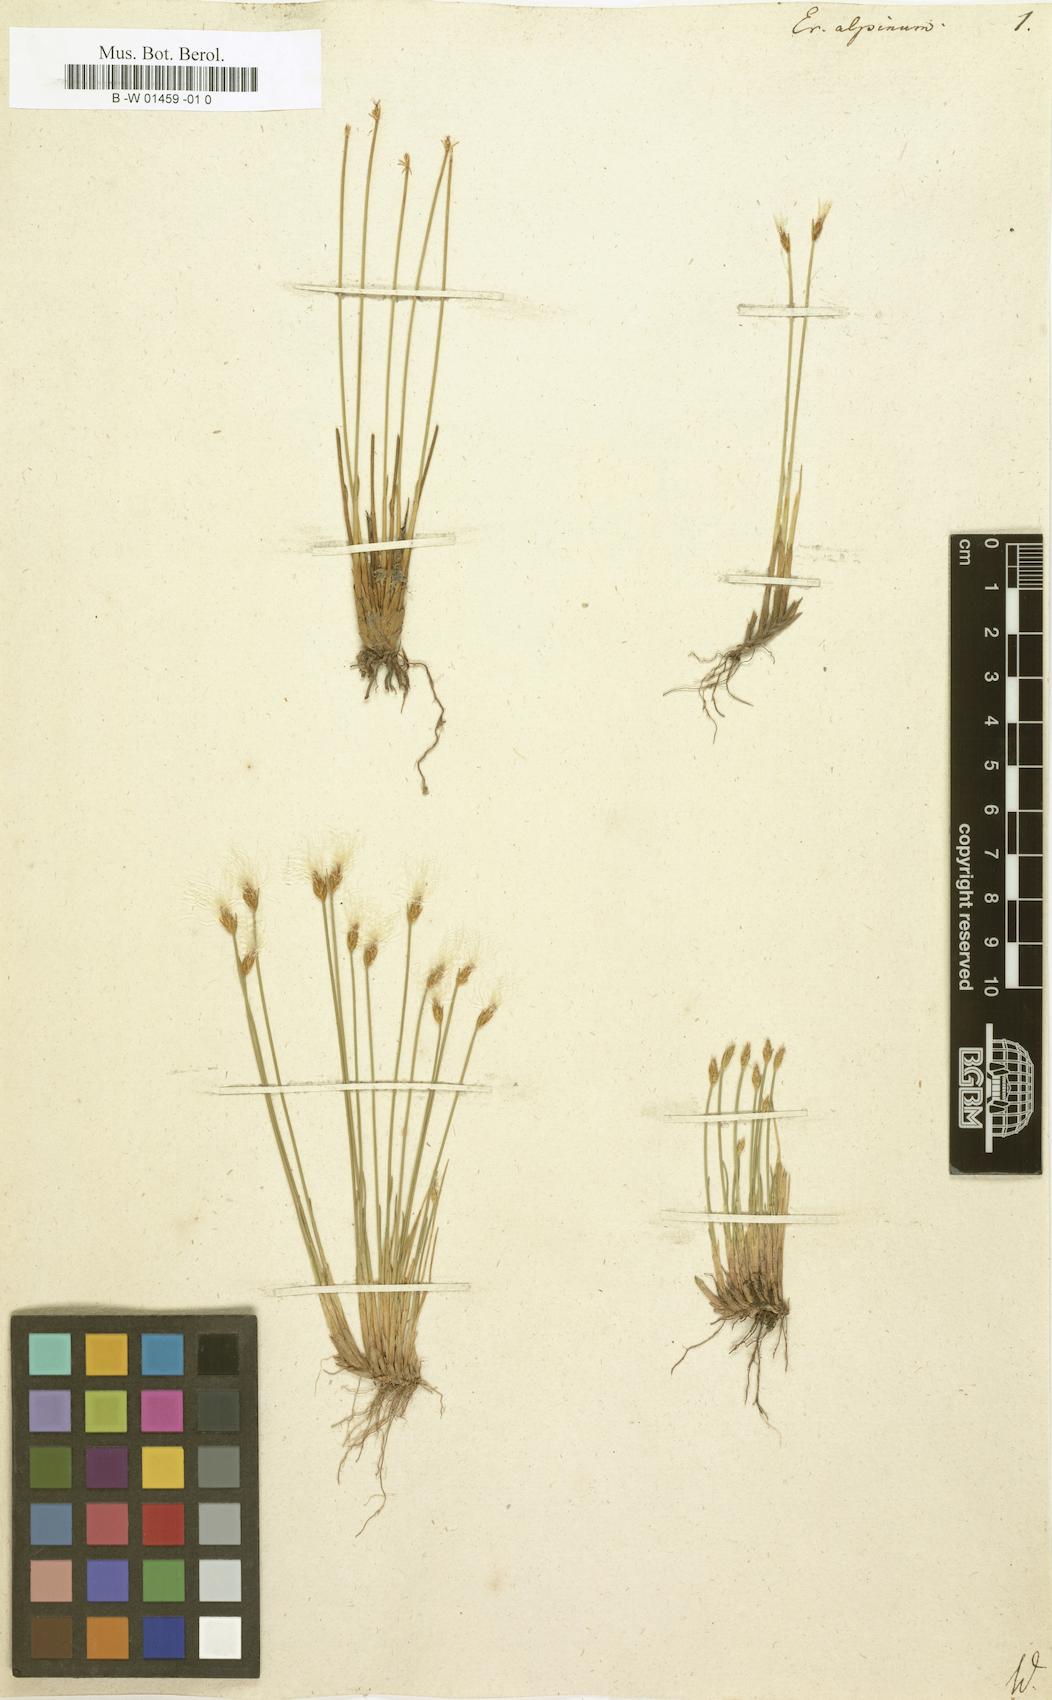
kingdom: Plantae
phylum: Tracheophyta
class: Liliopsida
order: Poales
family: Cyperaceae
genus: Trichophorum
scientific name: Trichophorum alpinum
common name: Alpine bulrush
